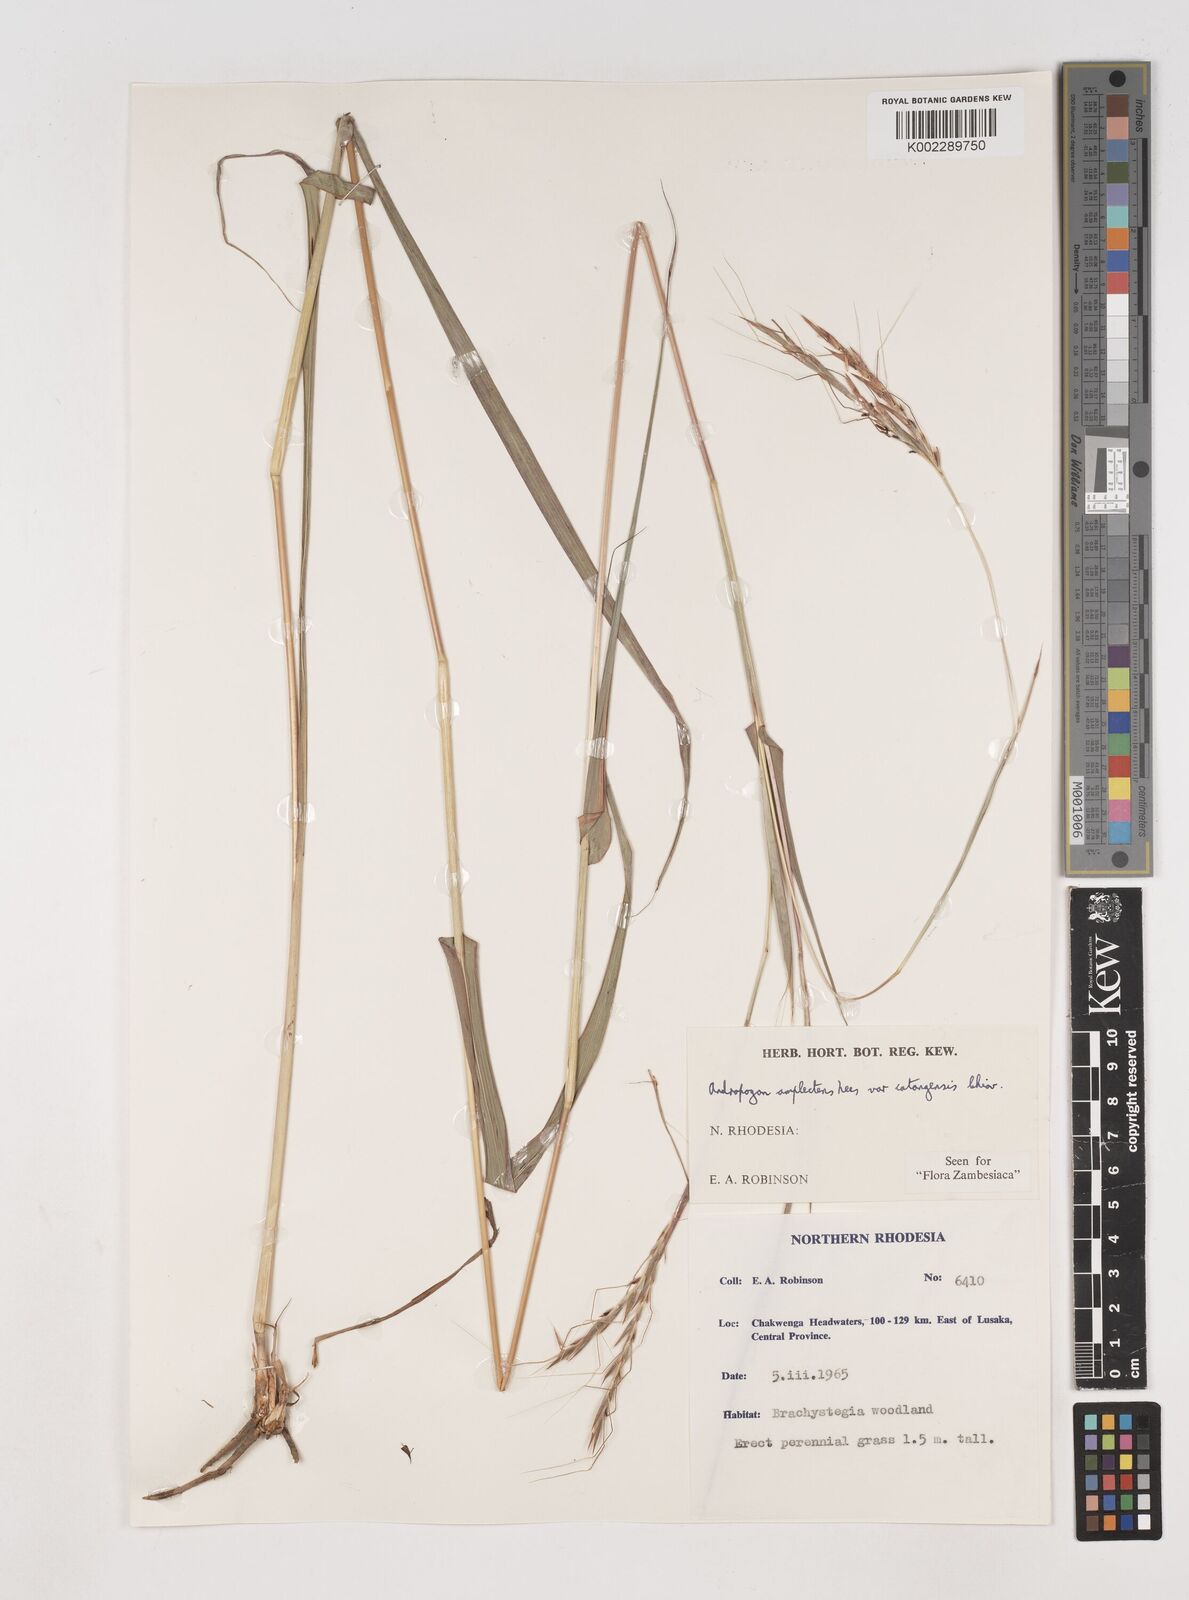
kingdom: Plantae
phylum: Tracheophyta
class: Liliopsida
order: Poales
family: Poaceae
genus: Diheteropogon
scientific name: Diheteropogon amplectens
